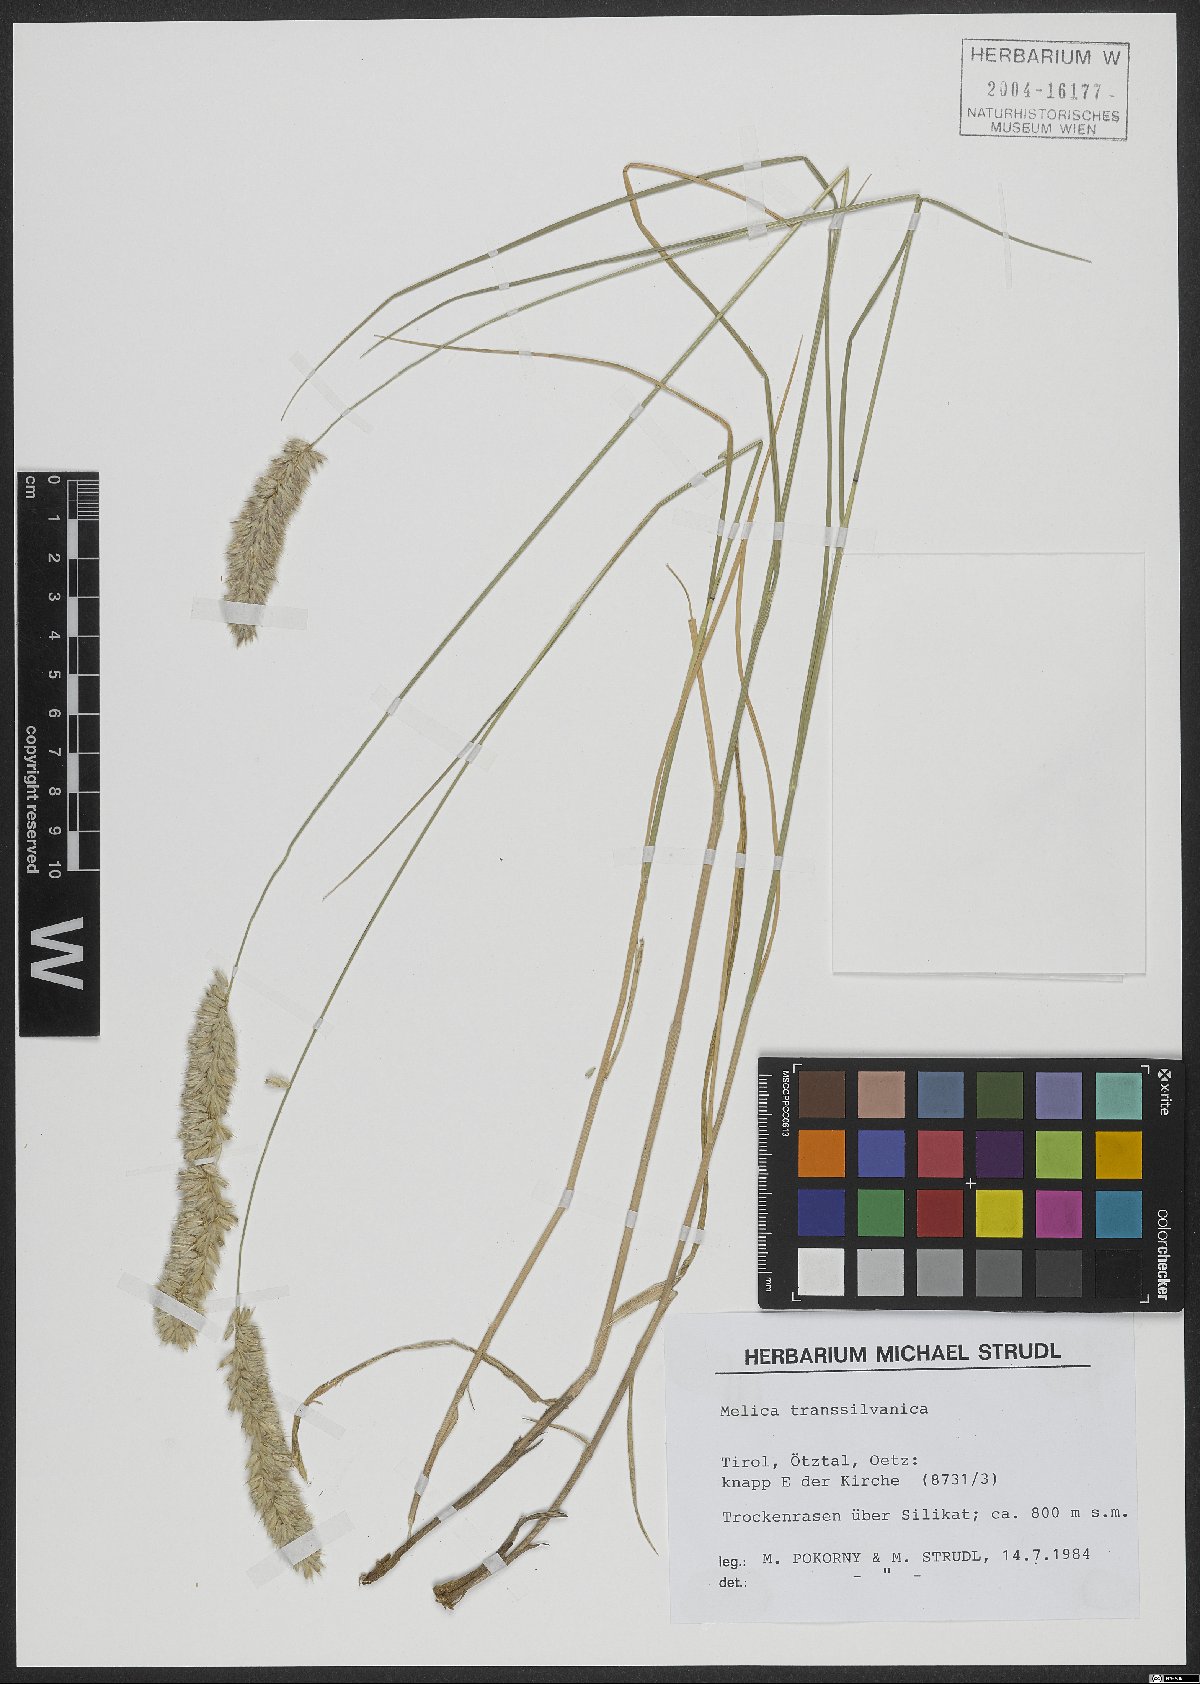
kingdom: Plantae
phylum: Tracheophyta
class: Liliopsida
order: Poales
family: Poaceae
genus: Melica
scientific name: Melica transsilvanica
